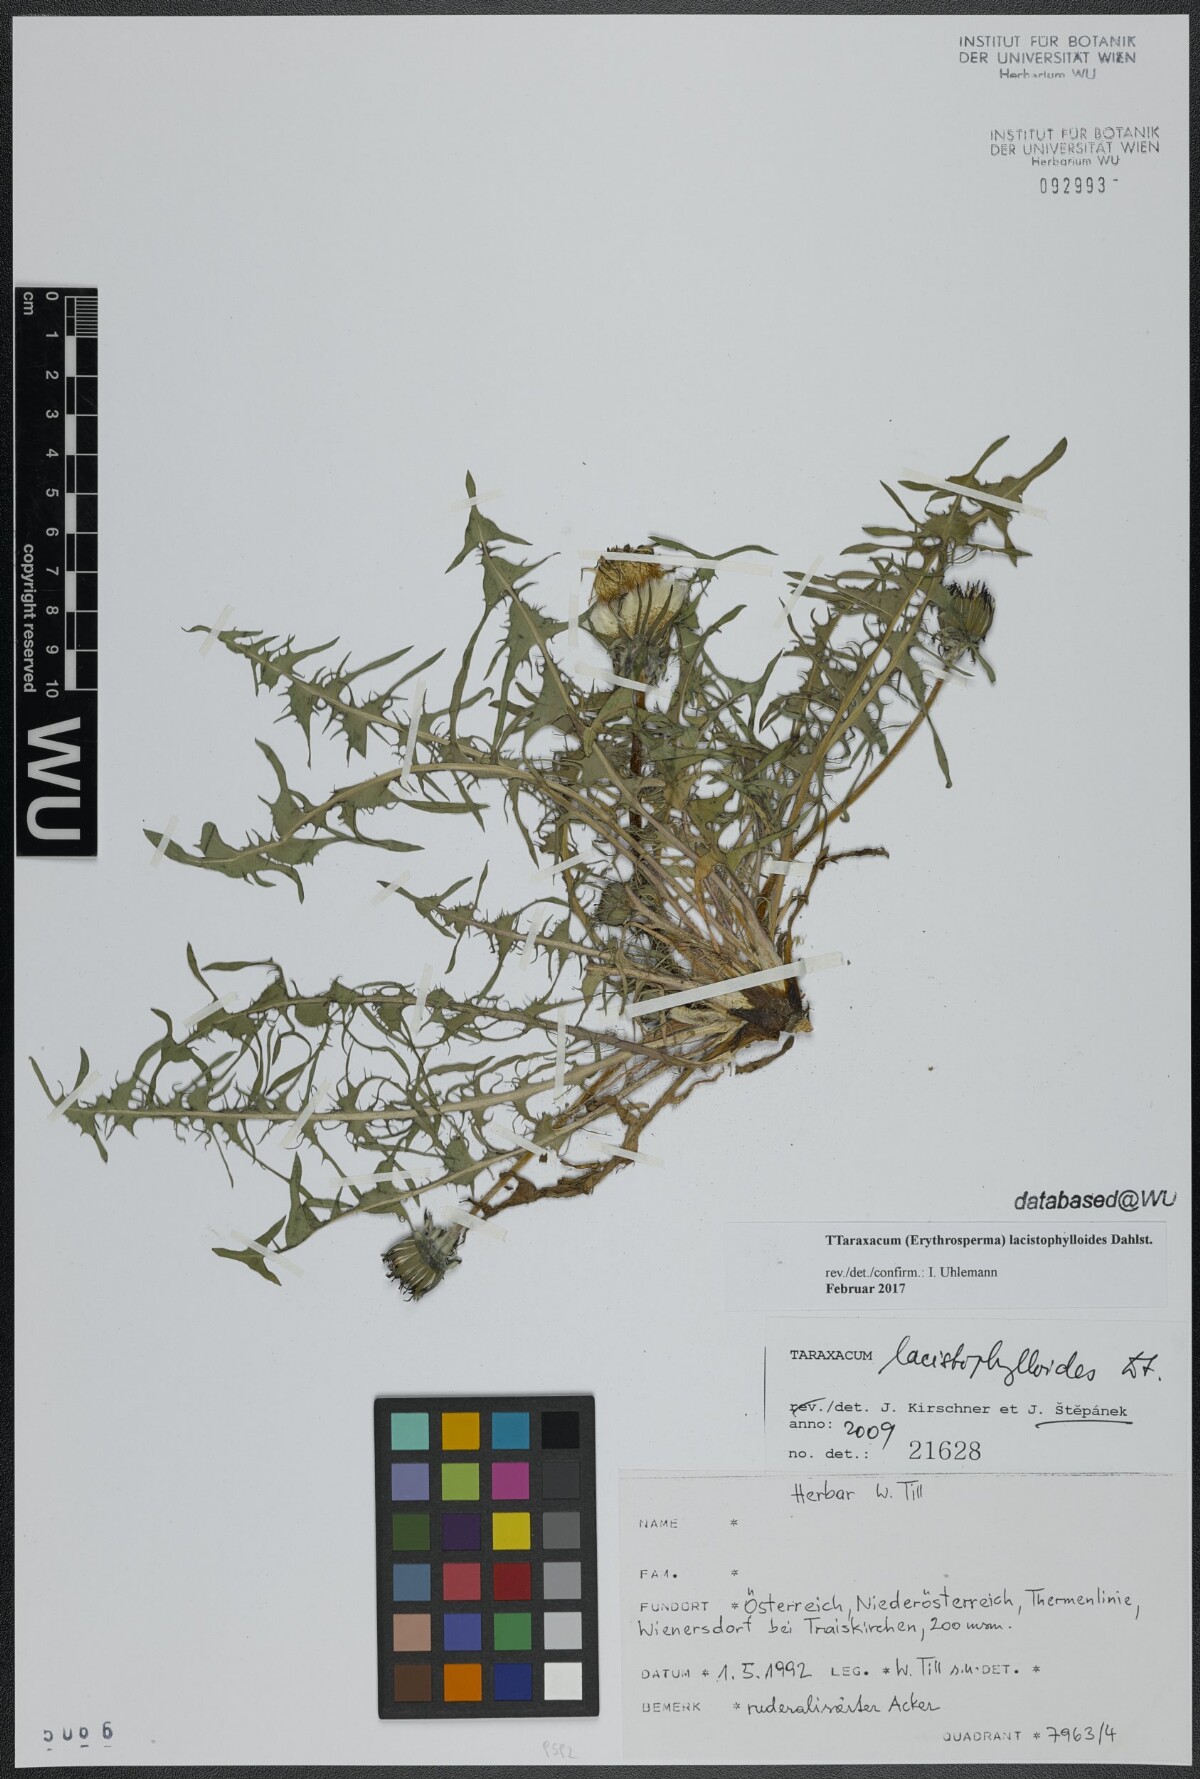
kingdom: Plantae
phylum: Tracheophyta
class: Magnoliopsida
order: Asterales
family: Asteraceae
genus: Taraxacum
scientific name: Taraxacum lacistophylloides
